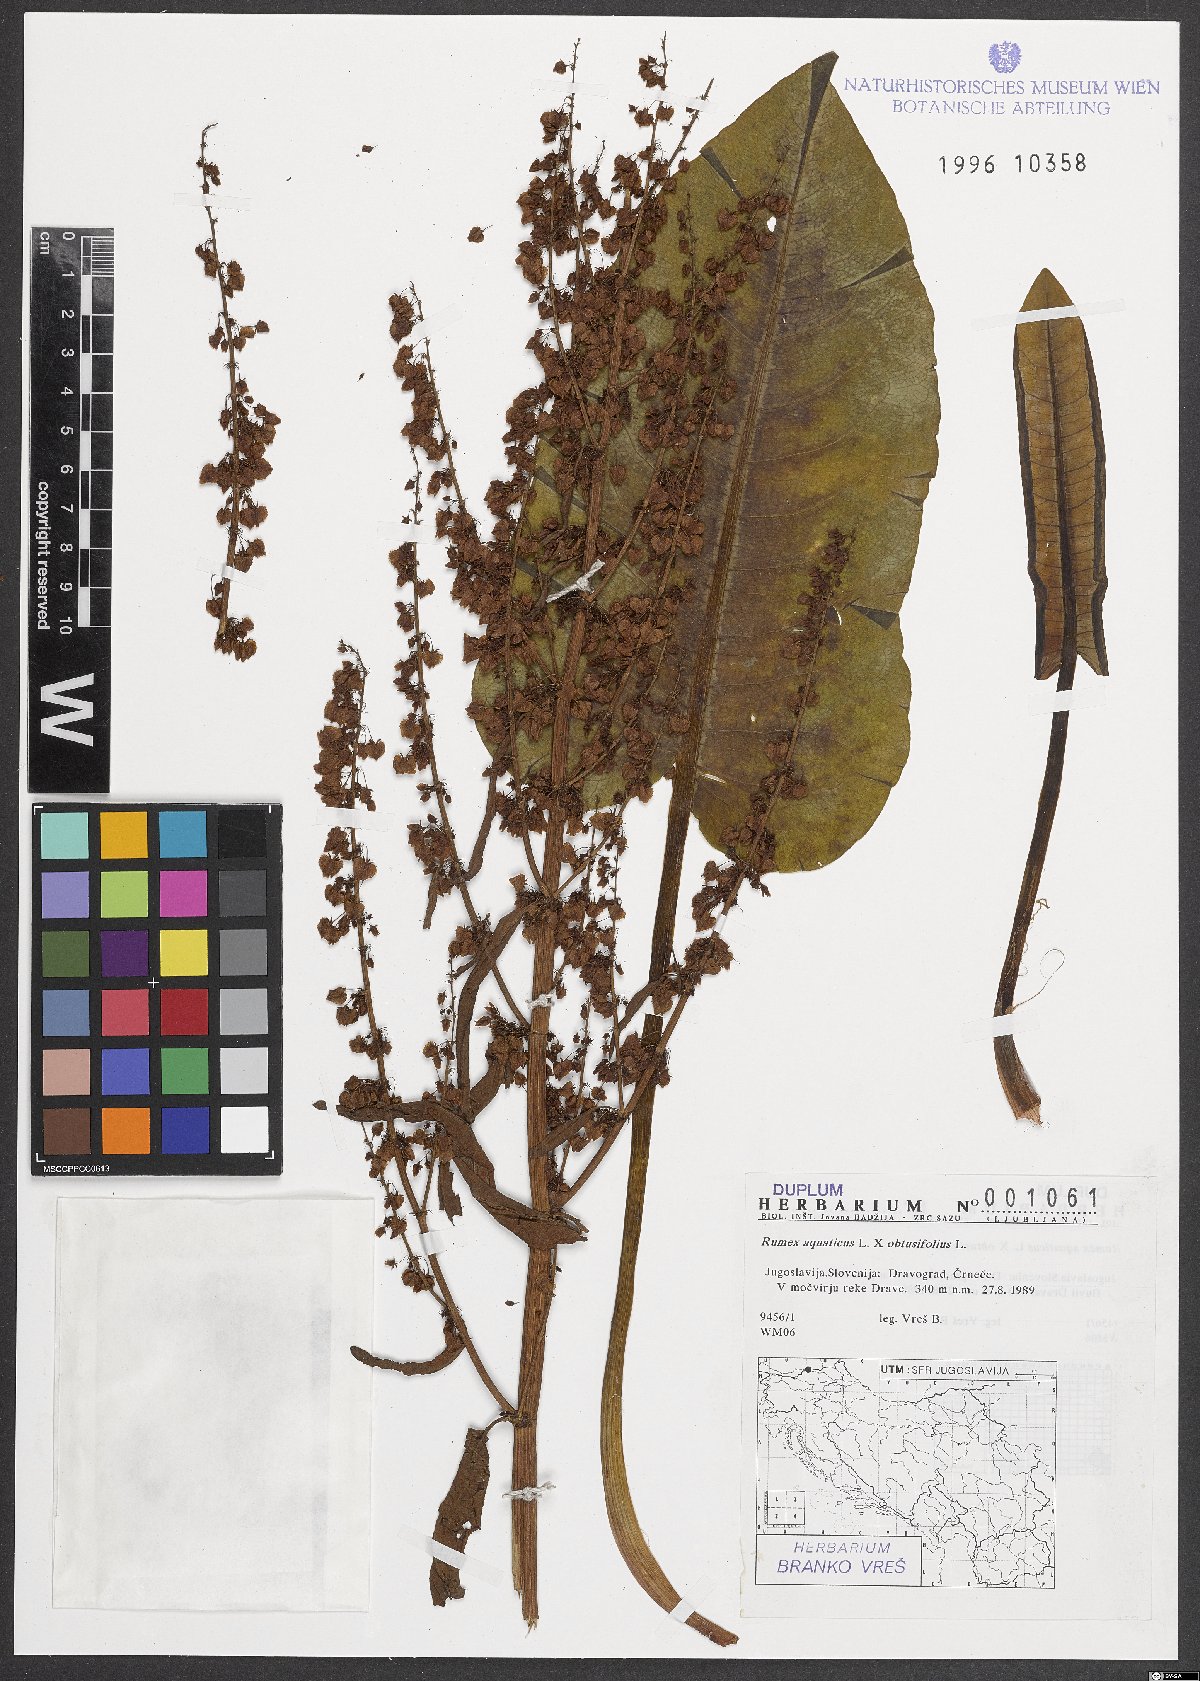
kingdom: Plantae
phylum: Tracheophyta
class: Magnoliopsida
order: Caryophyllales
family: Polygonaceae
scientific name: Polygonaceae
